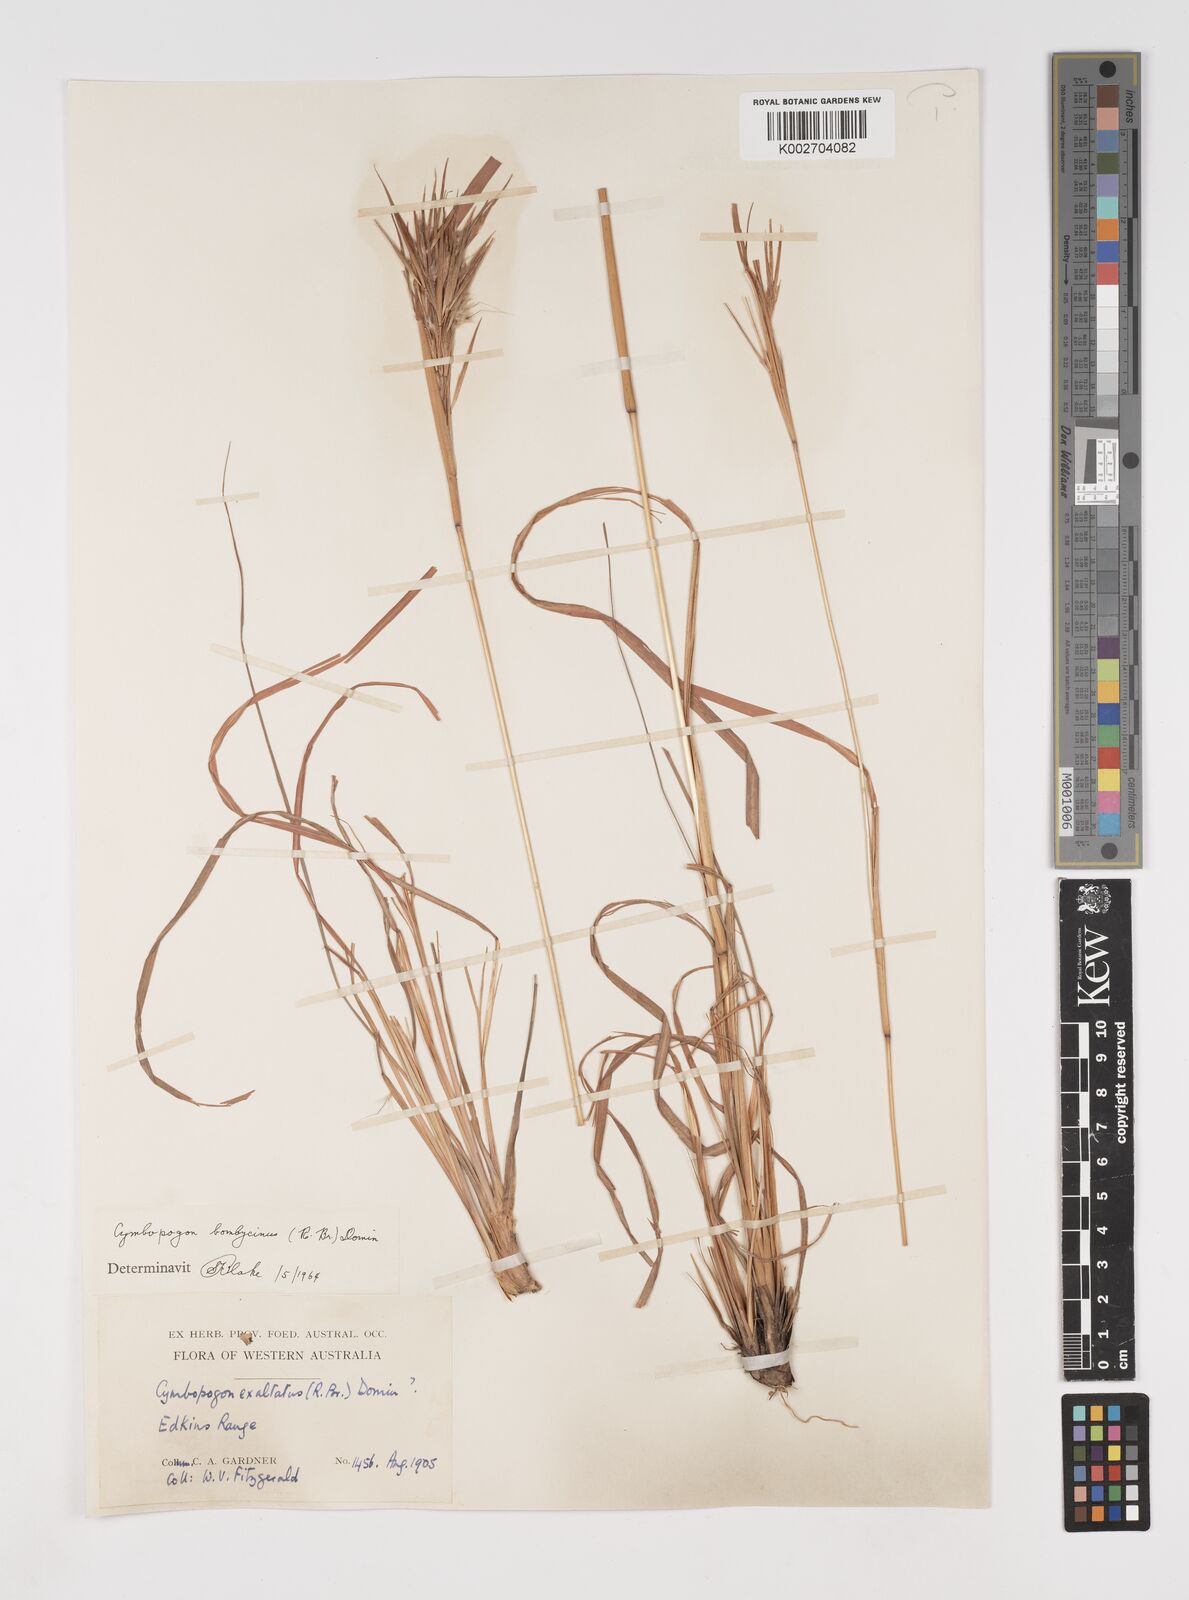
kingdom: Plantae
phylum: Tracheophyta
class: Liliopsida
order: Poales
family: Poaceae
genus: Cymbopogon
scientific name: Cymbopogon bombycinus
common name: Citronella grass
